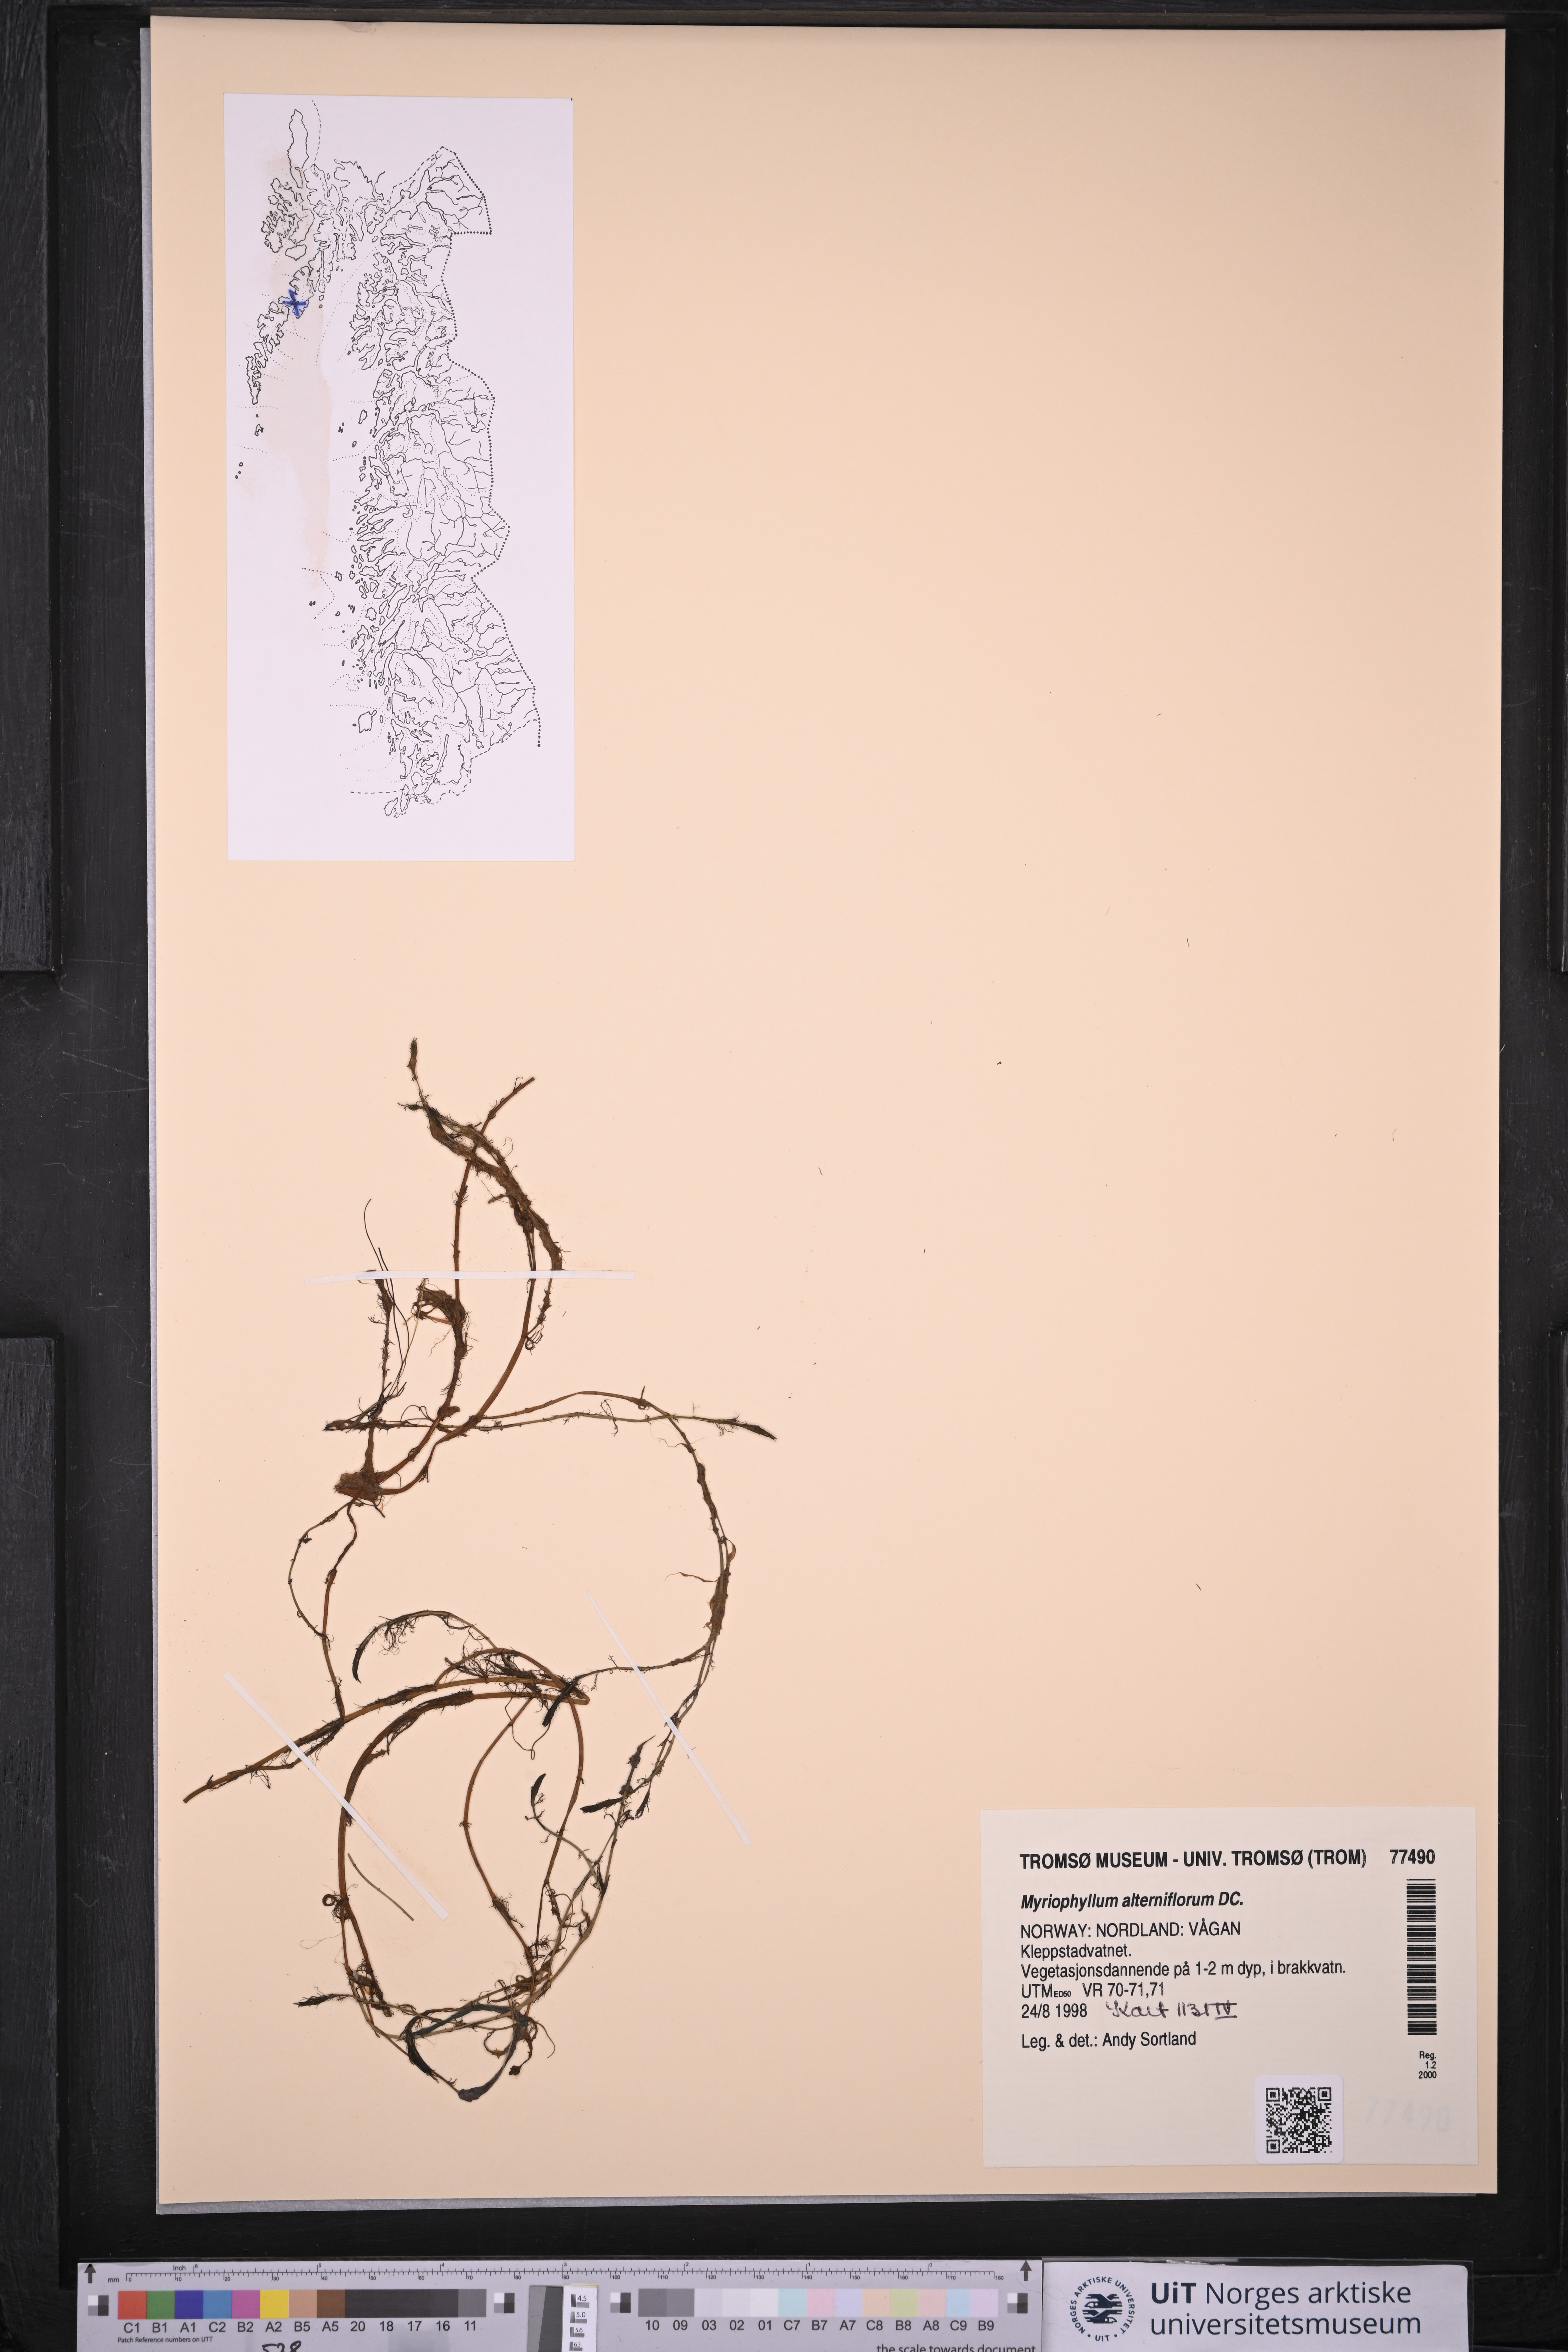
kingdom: Plantae
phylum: Tracheophyta
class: Magnoliopsida
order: Saxifragales
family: Haloragaceae
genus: Myriophyllum
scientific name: Myriophyllum alterniflorum
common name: Alternate water-milfoil
